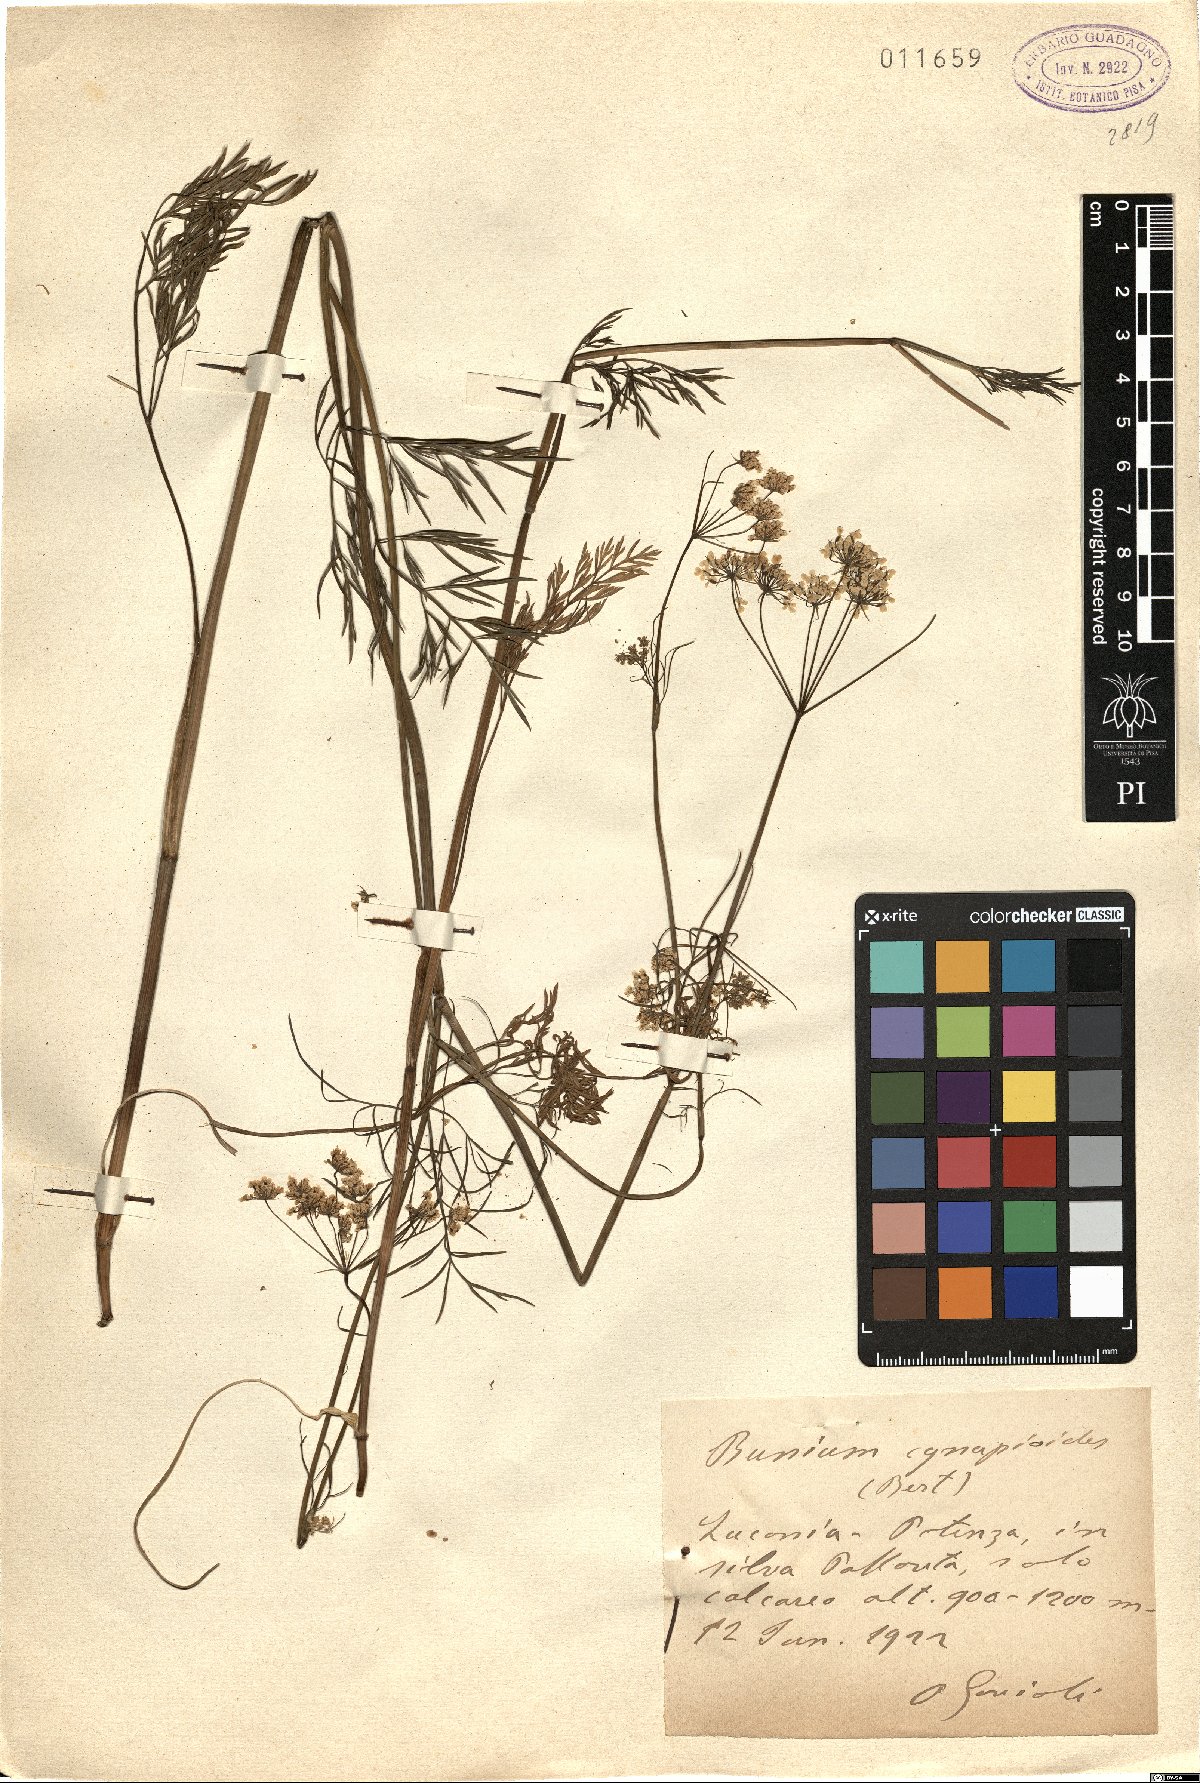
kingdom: Plantae
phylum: Tracheophyta
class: Magnoliopsida
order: Apiales
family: Apiaceae
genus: Geocaryum
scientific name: Geocaryum cynapioides
